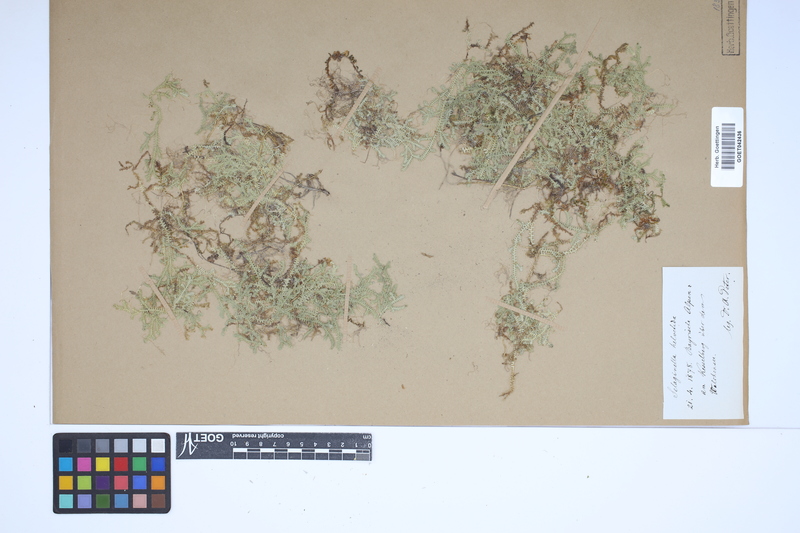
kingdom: Plantae
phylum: Tracheophyta
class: Lycopodiopsida
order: Selaginellales
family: Selaginellaceae
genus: Selaginella
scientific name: Selaginella helvetica
